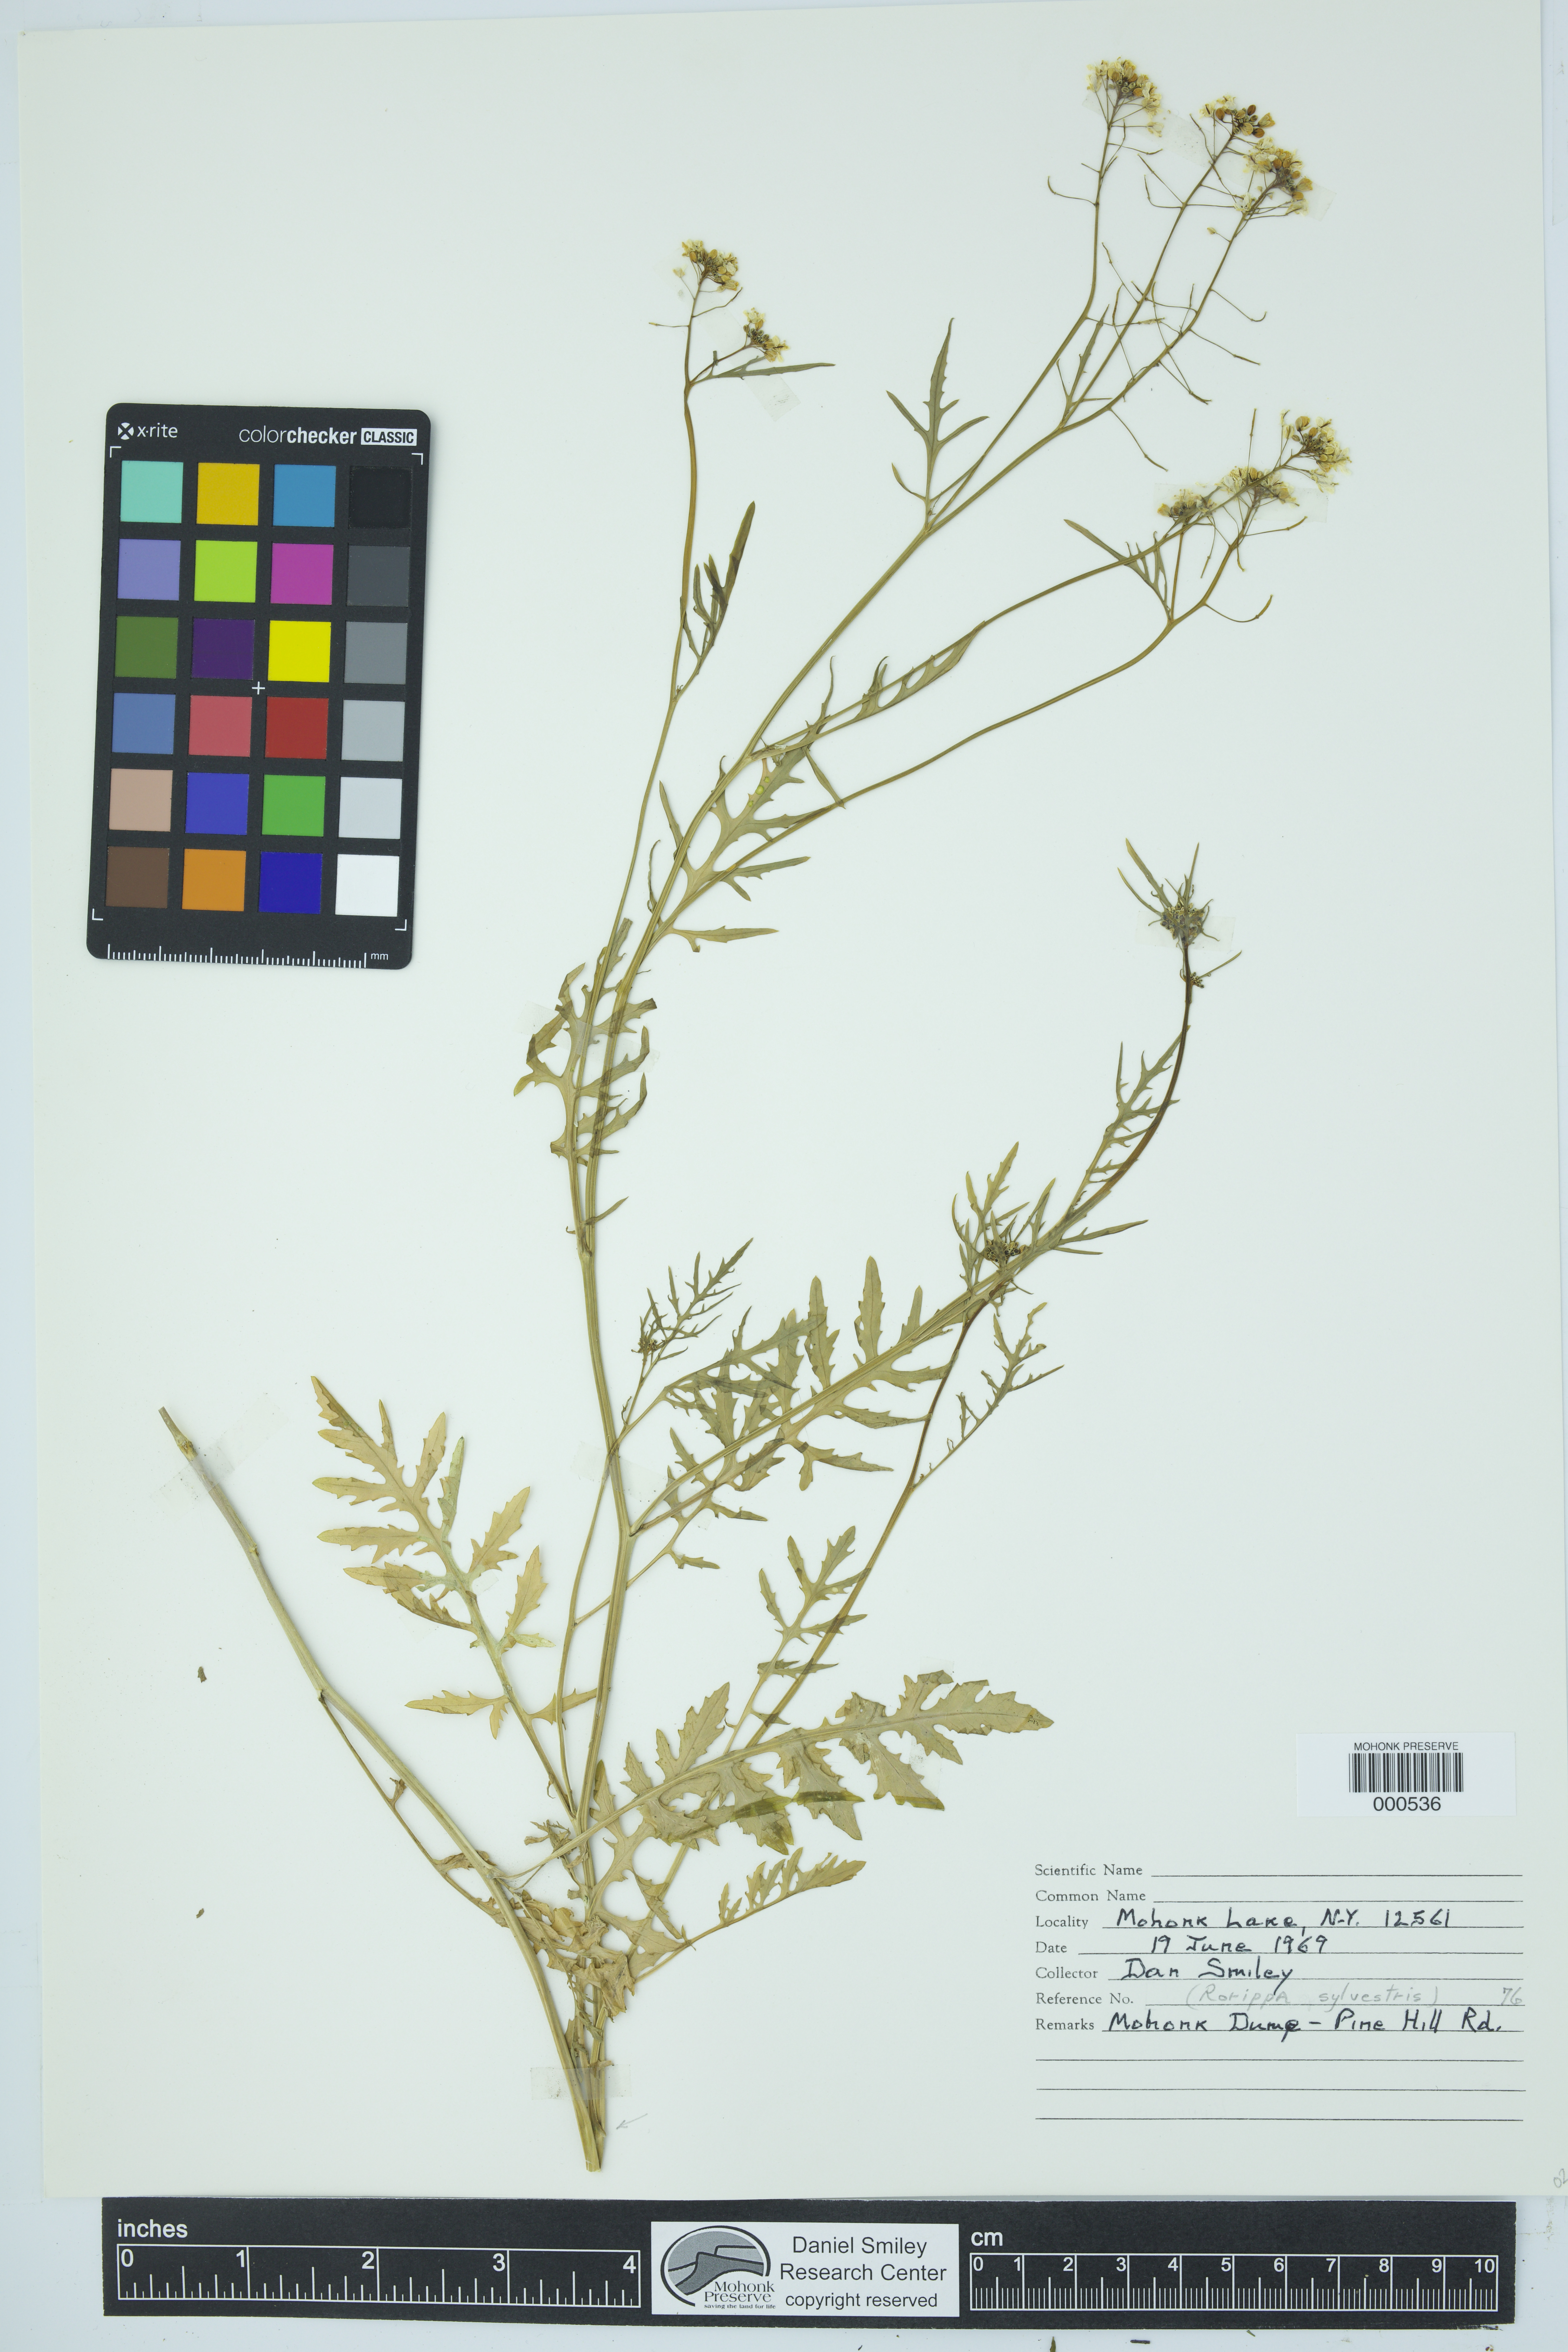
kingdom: Plantae
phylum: Tracheophyta
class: Magnoliopsida
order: Brassicales
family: Brassicaceae
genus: Rorippa
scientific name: Rorippa sylvestris
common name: Creeping yellowcress
